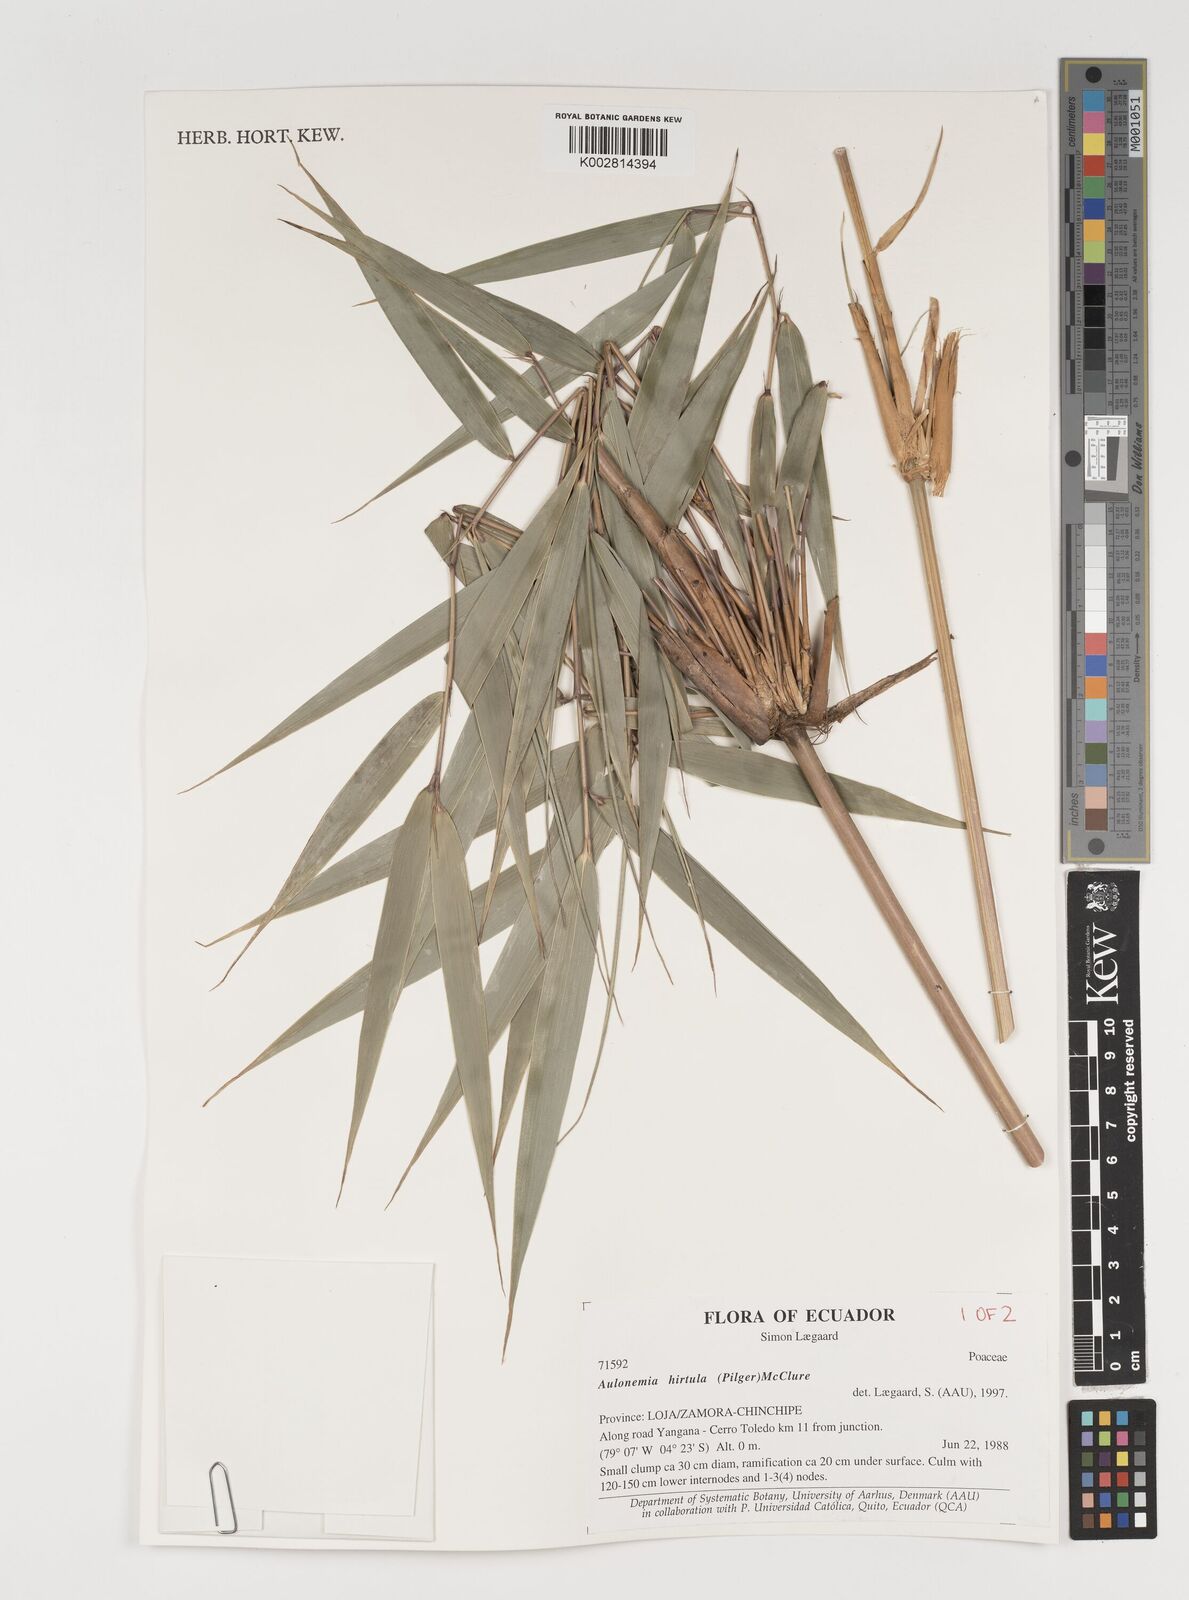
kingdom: Plantae
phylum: Tracheophyta
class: Liliopsida
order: Poales
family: Poaceae
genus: Aulonemia
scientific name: Aulonemia hirtula
